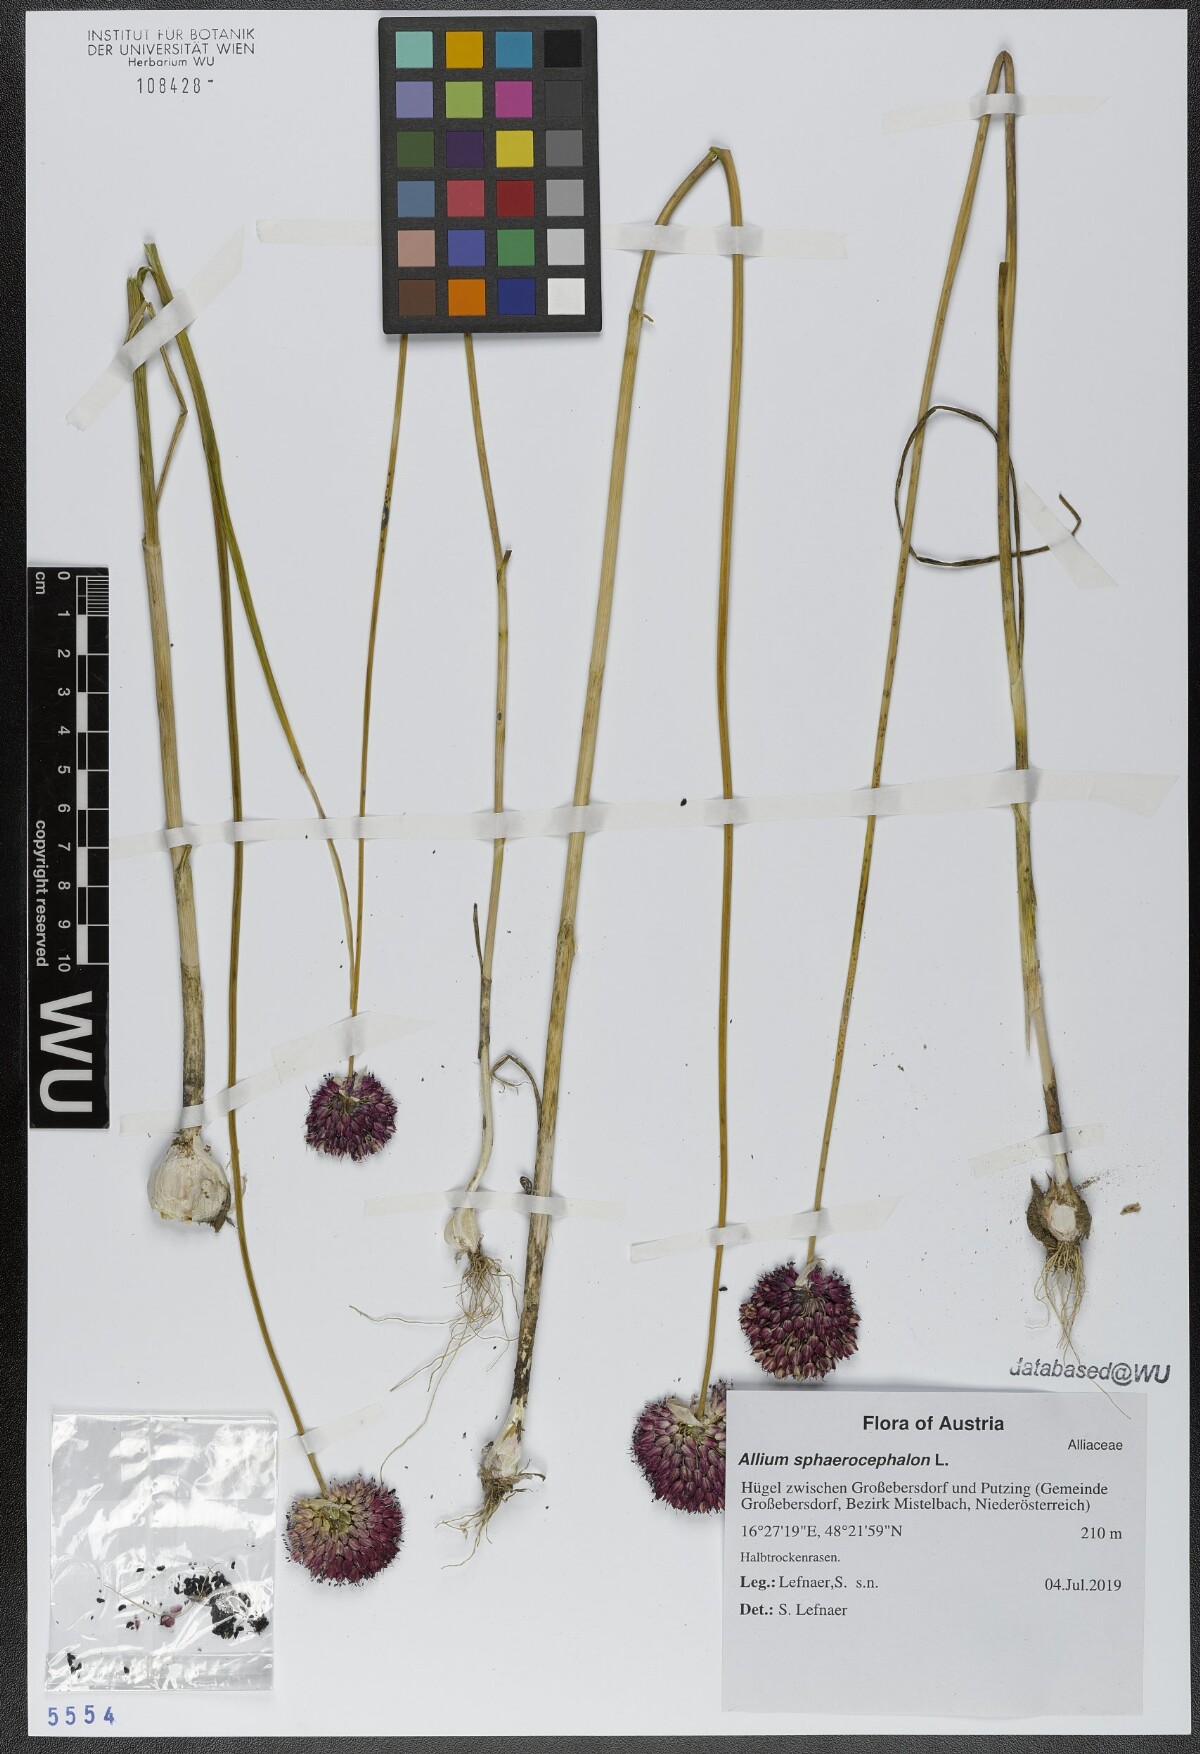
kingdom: Plantae
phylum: Tracheophyta
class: Liliopsida
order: Asparagales
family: Amaryllidaceae
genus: Allium
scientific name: Allium sphaerocephalon
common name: Round-headed leek
